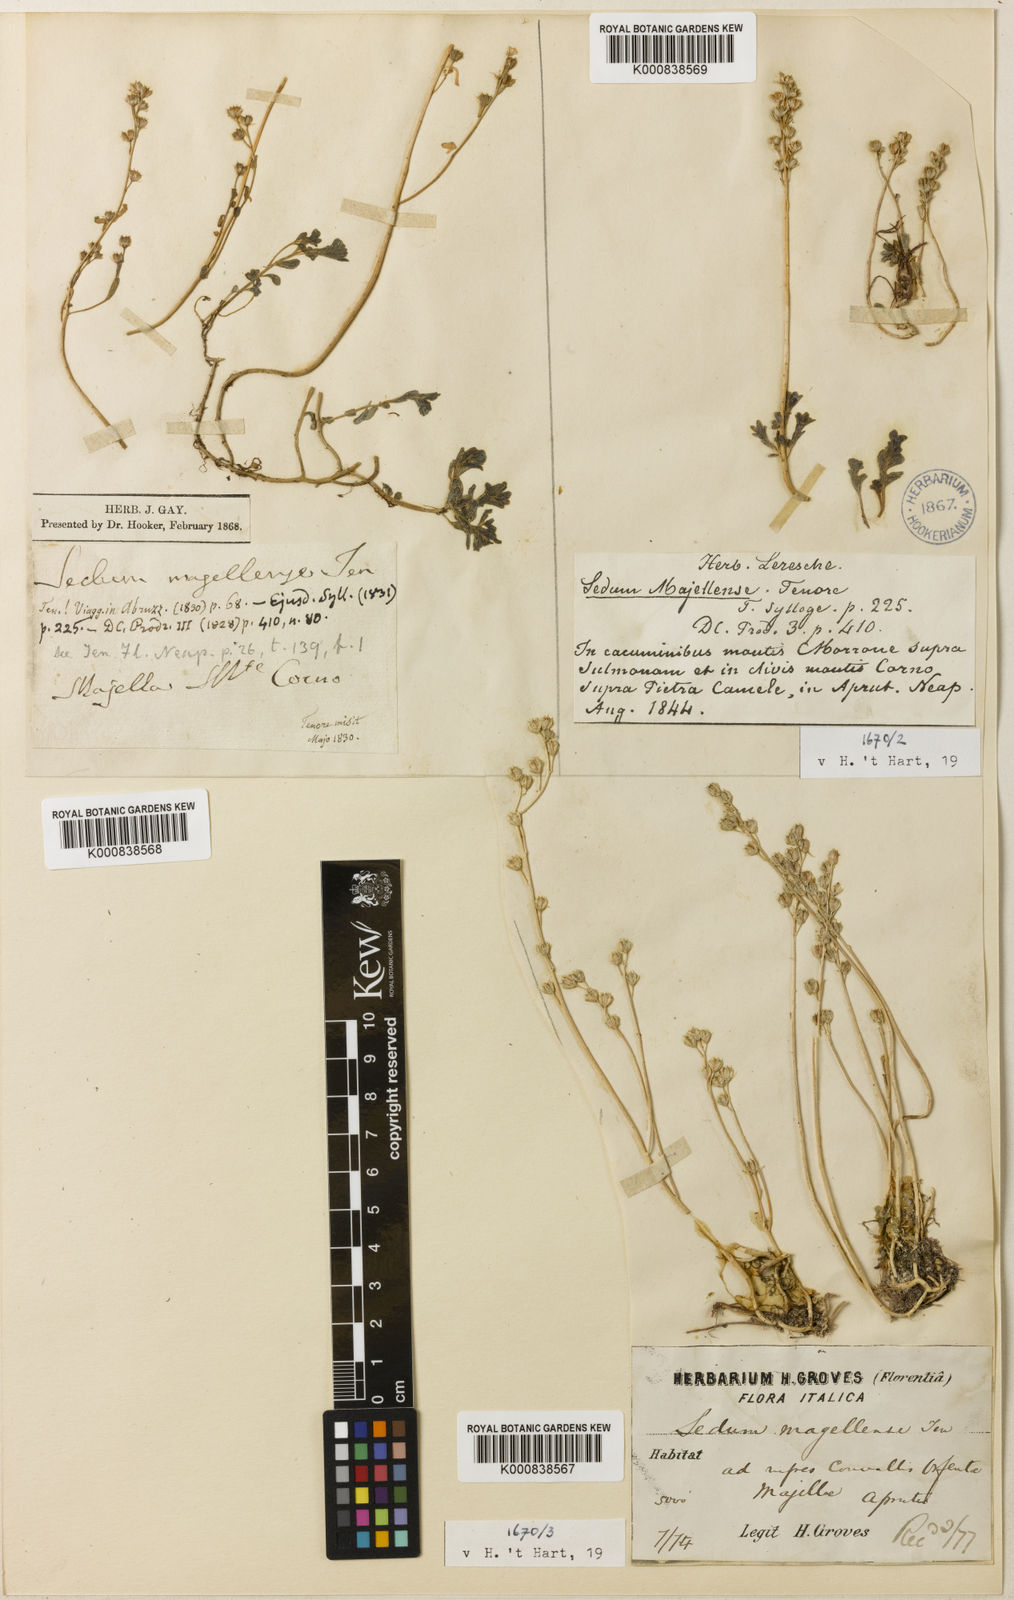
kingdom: Plantae
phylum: Tracheophyta
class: Magnoliopsida
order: Saxifragales
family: Crassulaceae
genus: Sedum
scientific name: Sedum magellense
